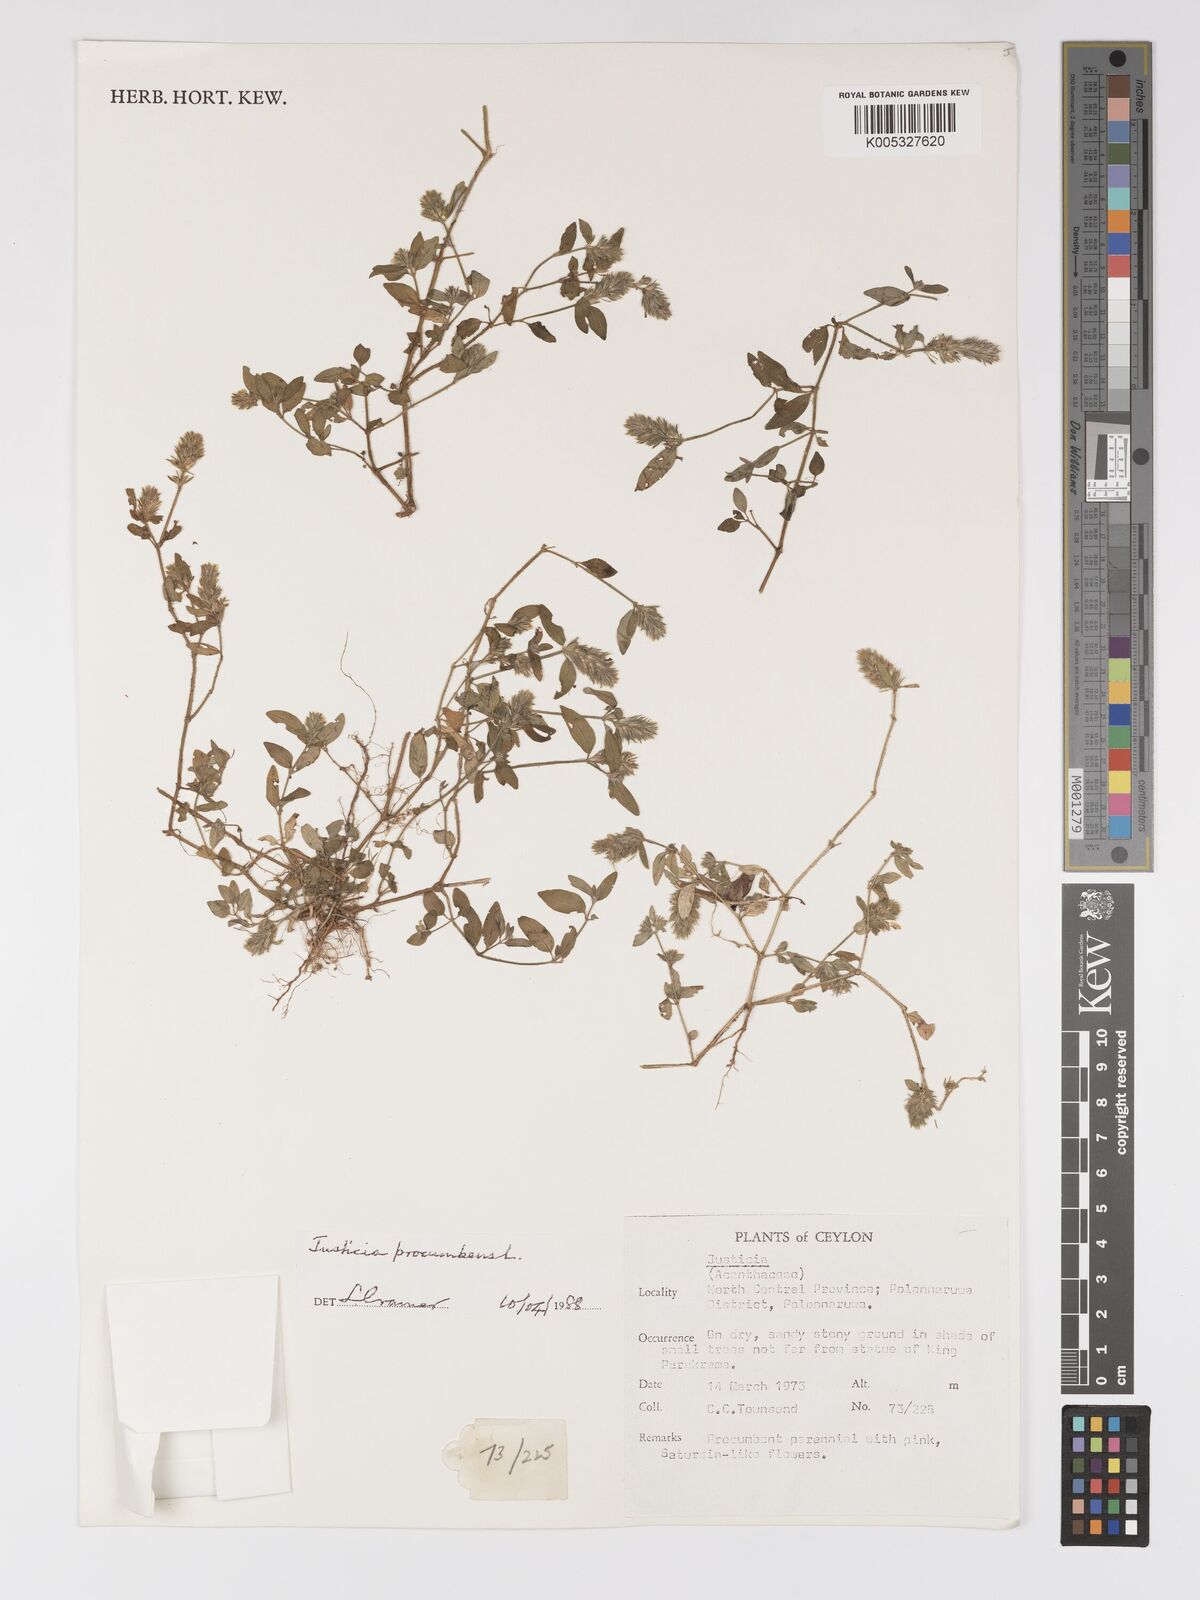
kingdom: Plantae
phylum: Tracheophyta
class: Magnoliopsida
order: Lamiales
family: Acanthaceae
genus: Justicia
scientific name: Justicia
